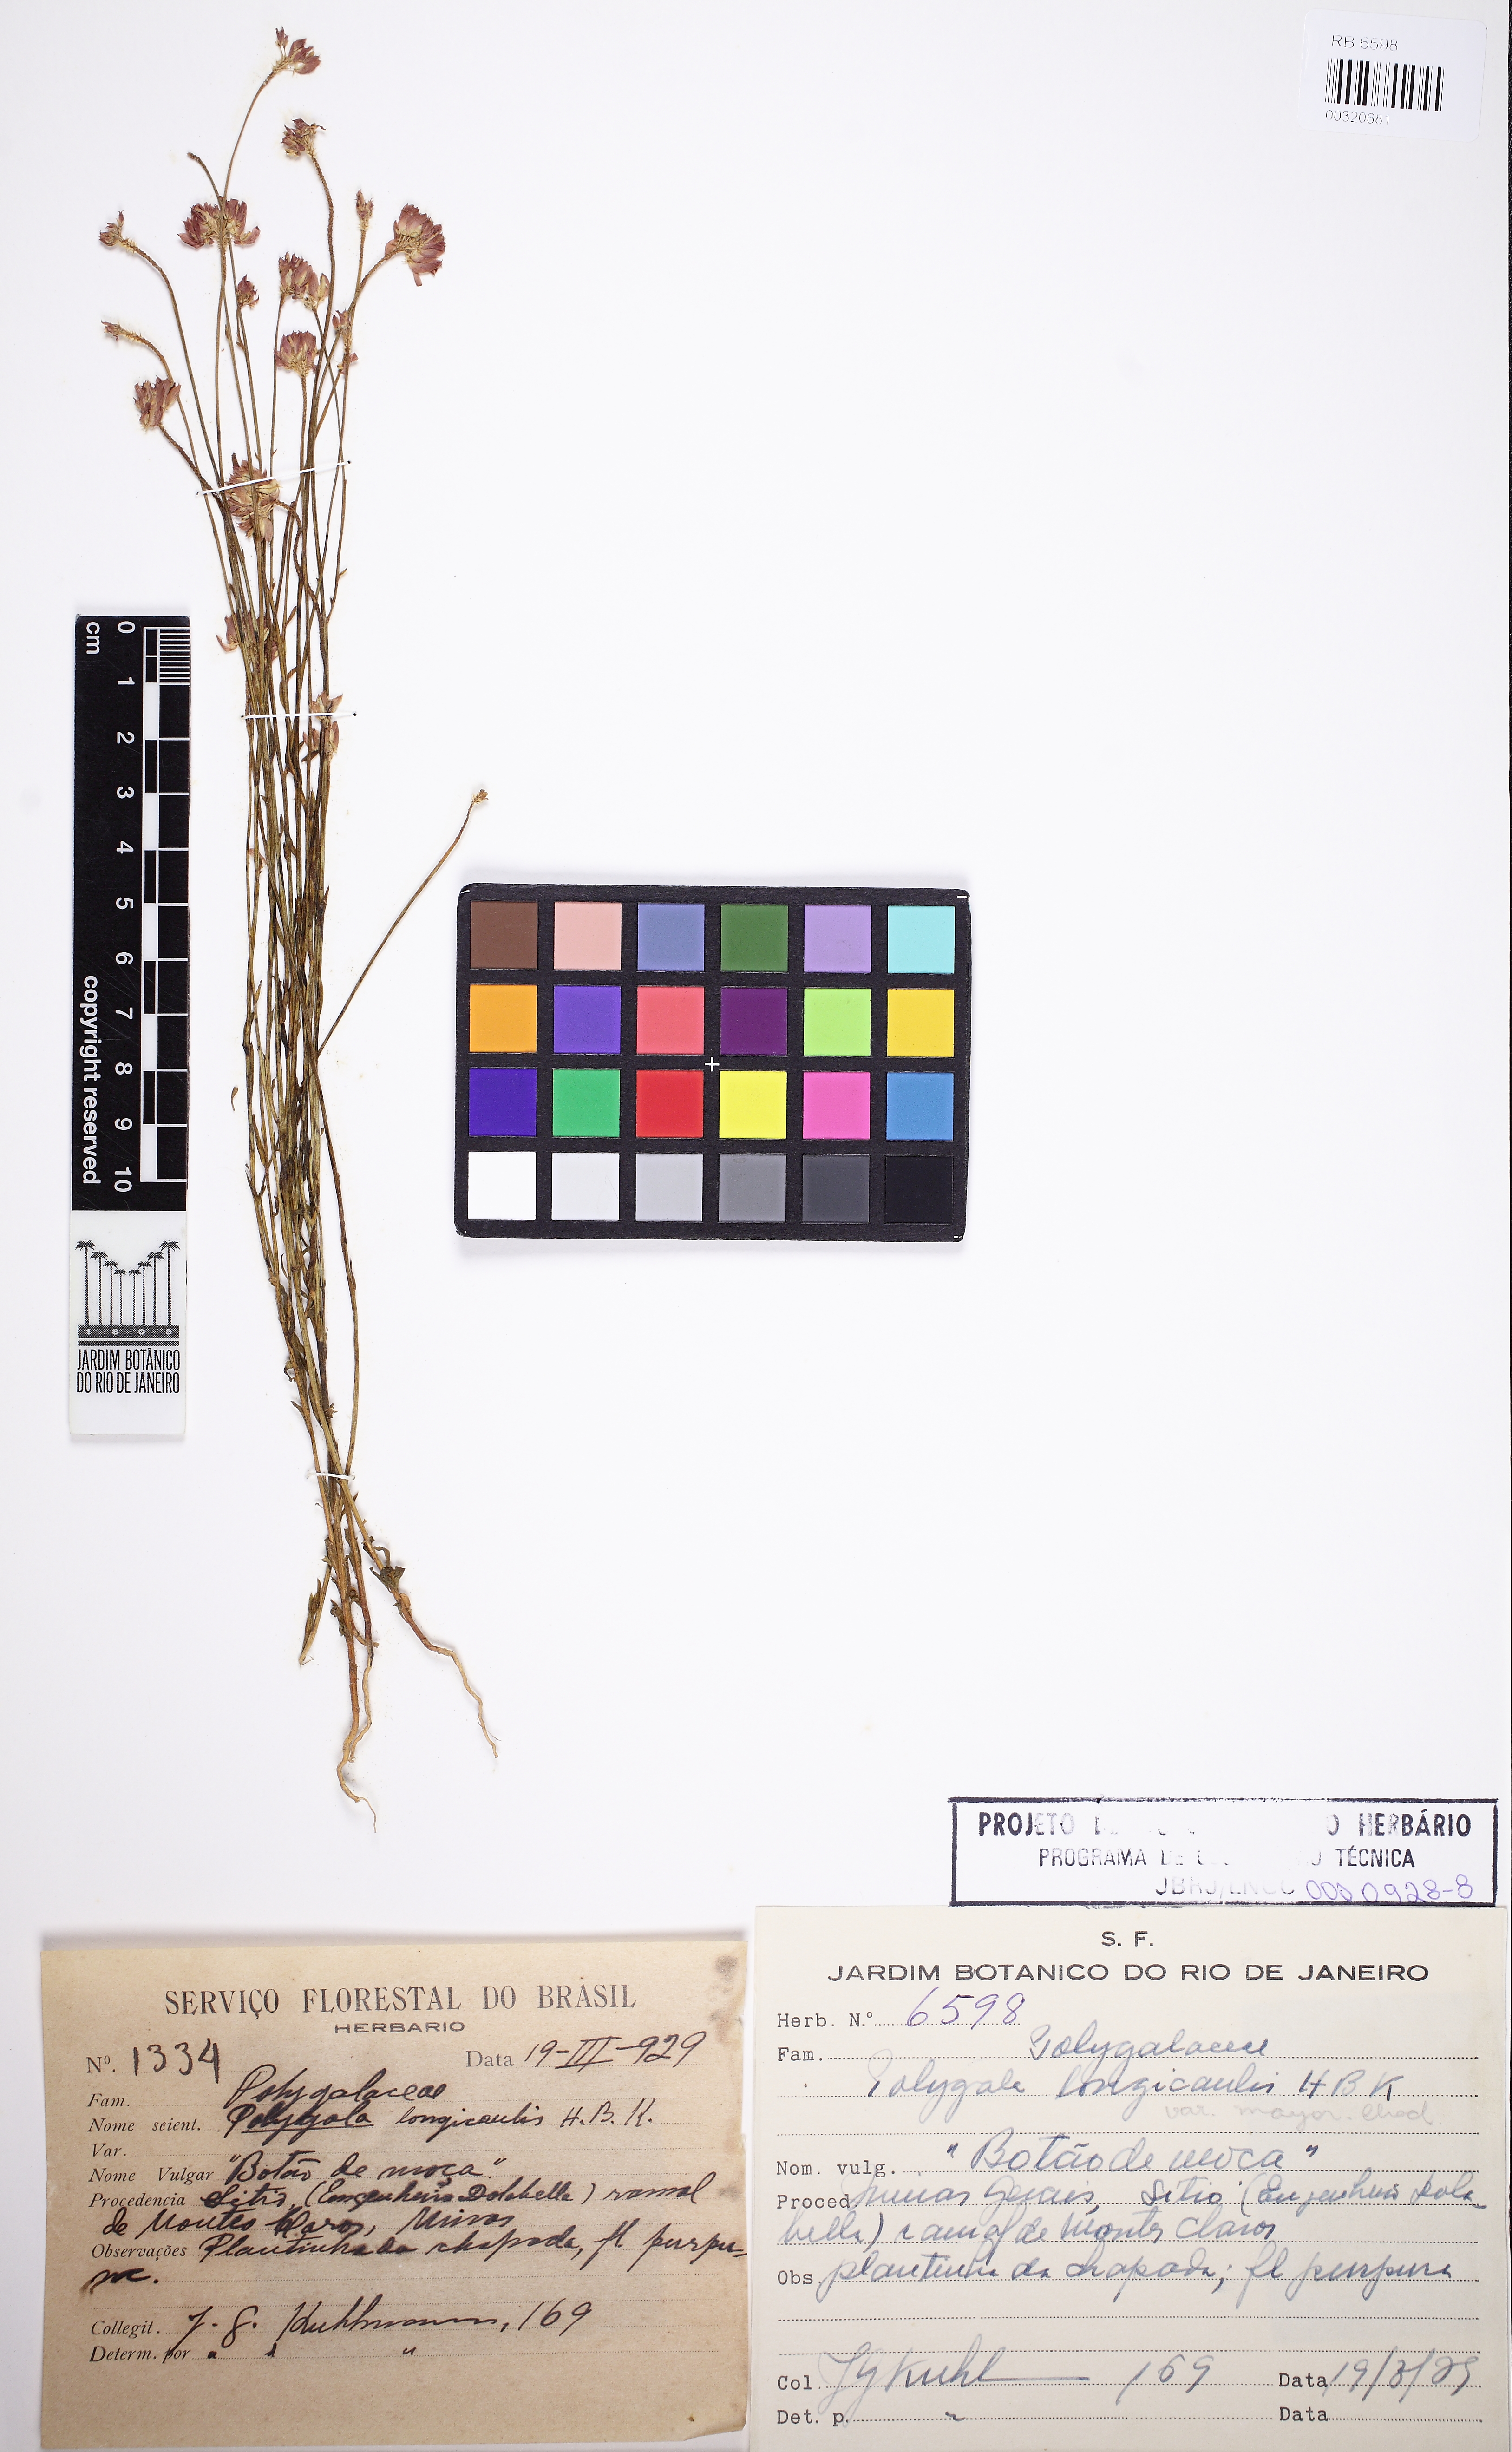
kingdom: Plantae
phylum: Tracheophyta
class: Magnoliopsida
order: Fabales
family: Polygalaceae
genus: Polygala
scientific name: Polygala longicaulis
